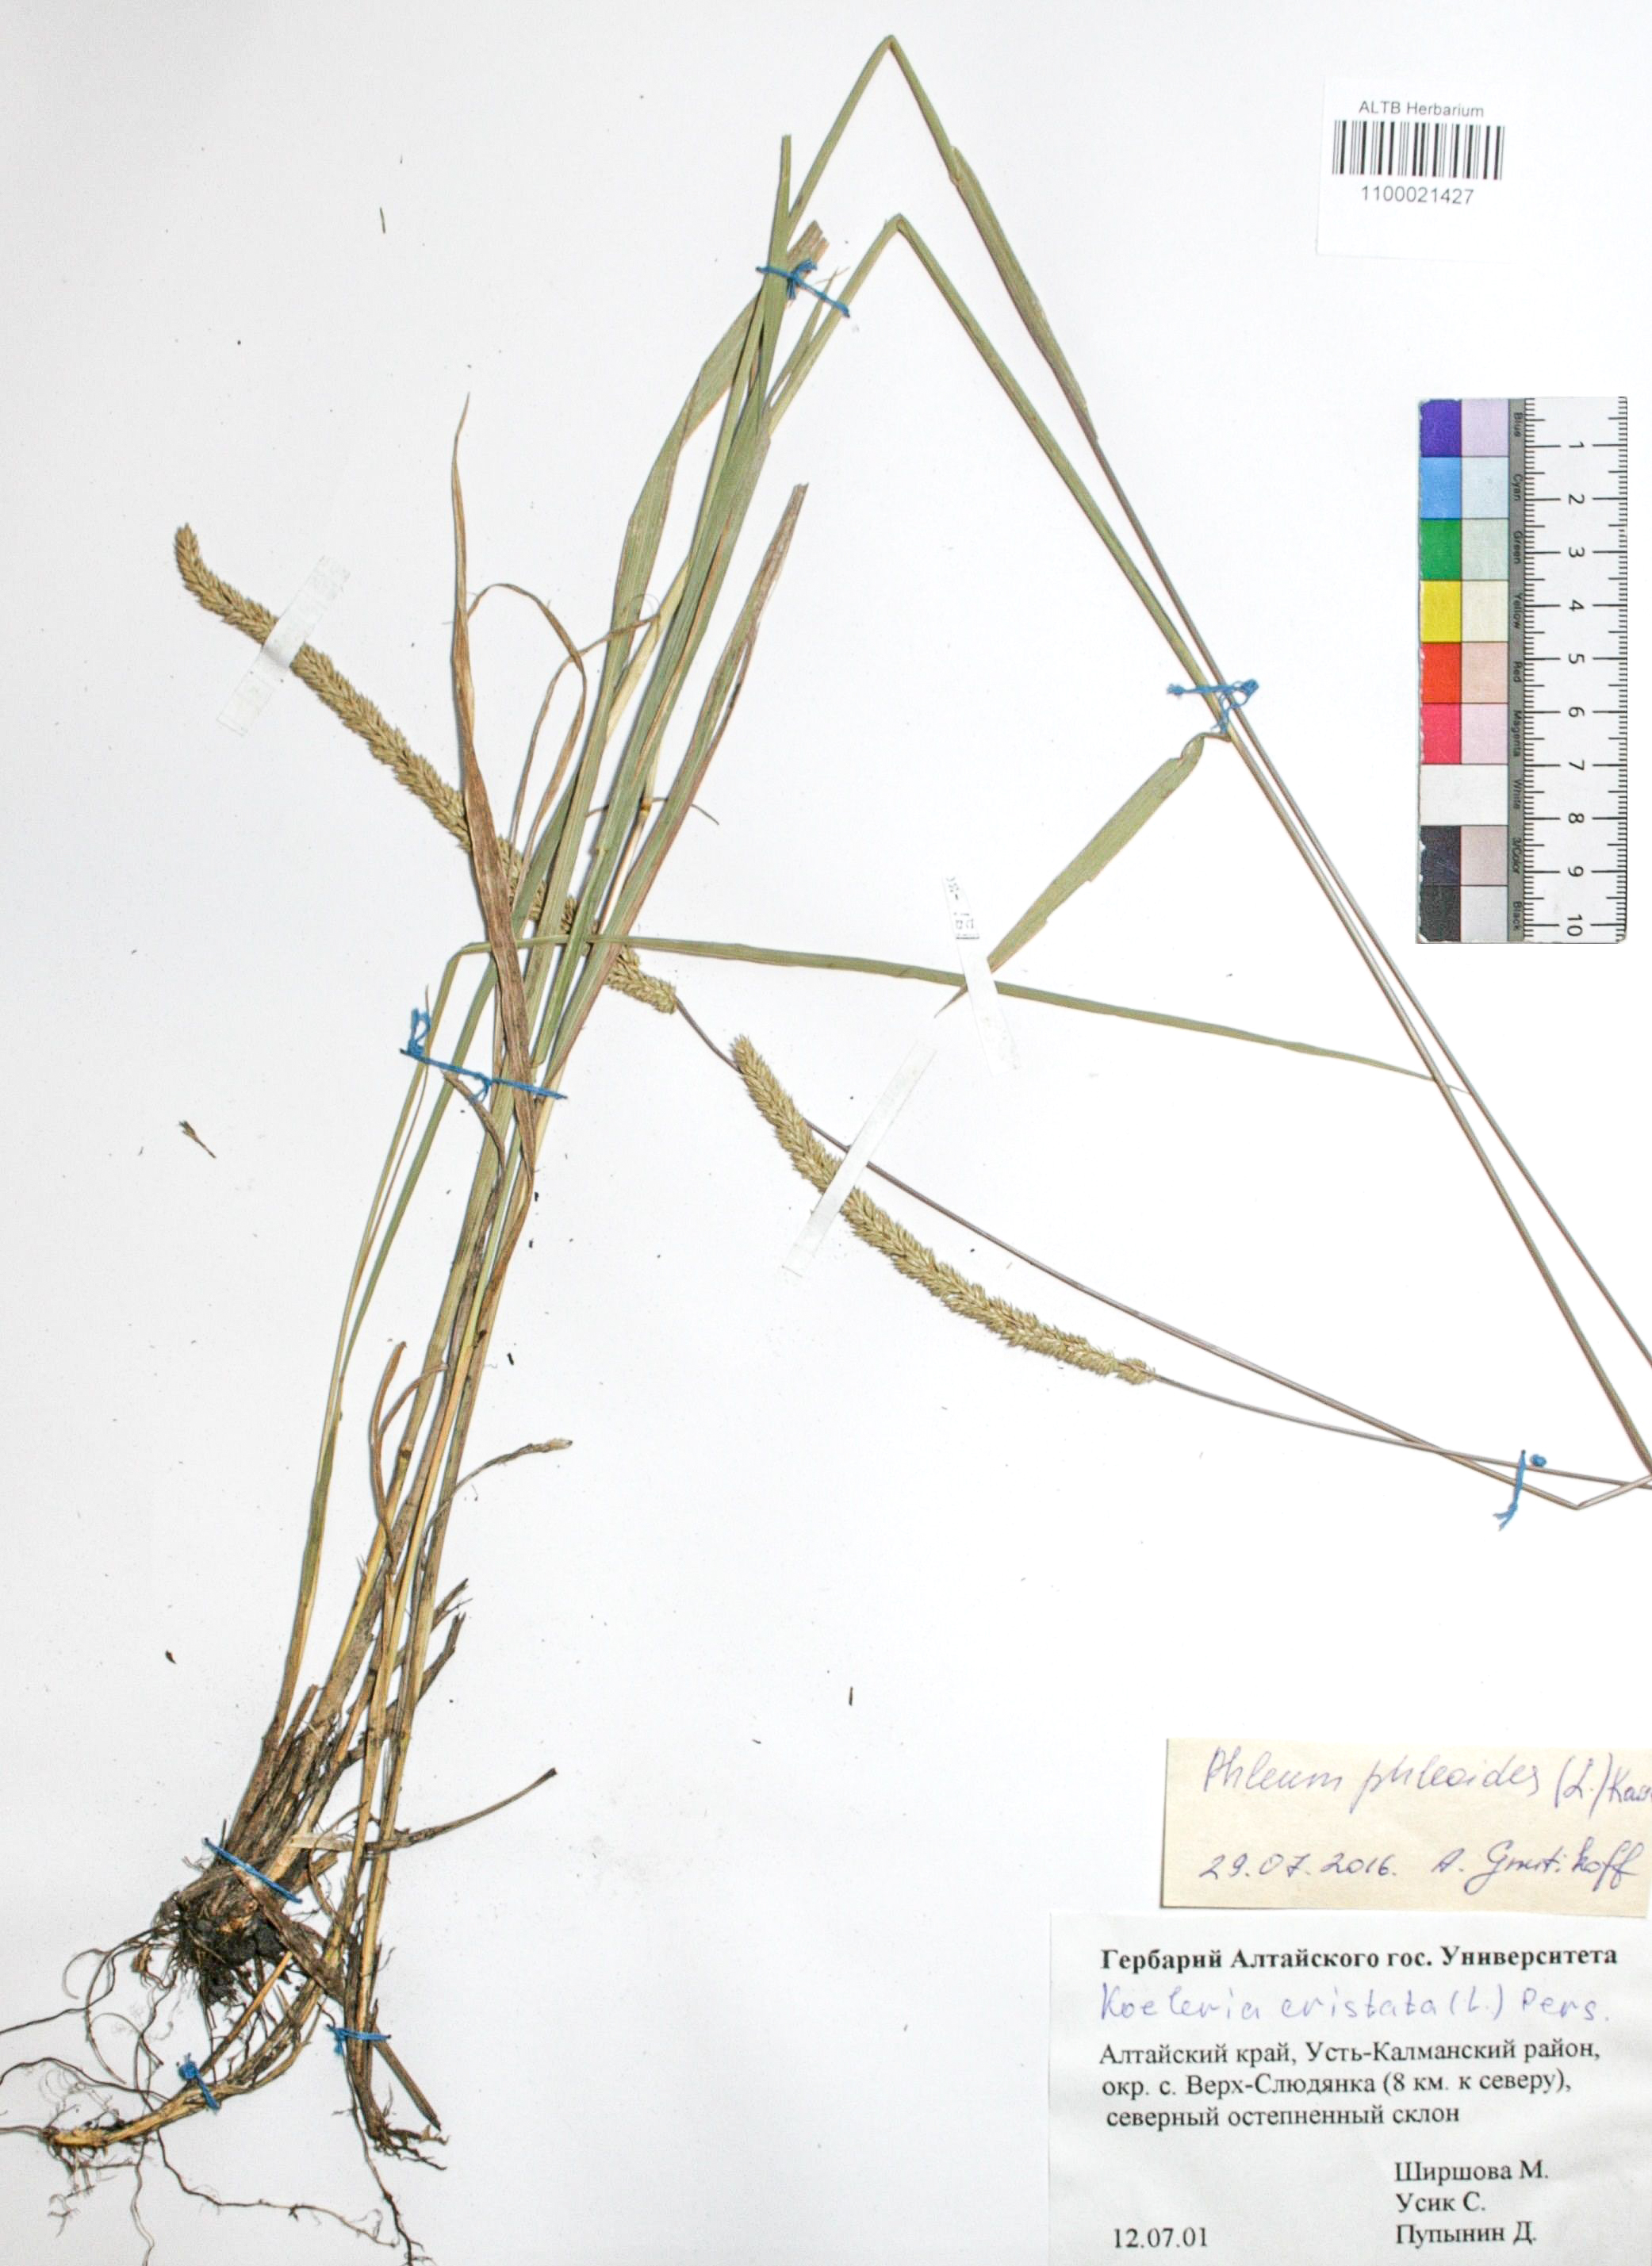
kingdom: Plantae
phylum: Tracheophyta
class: Liliopsida
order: Poales
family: Poaceae
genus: Phleum
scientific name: Phleum phleoides
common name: Purple-stem cat's-tail
